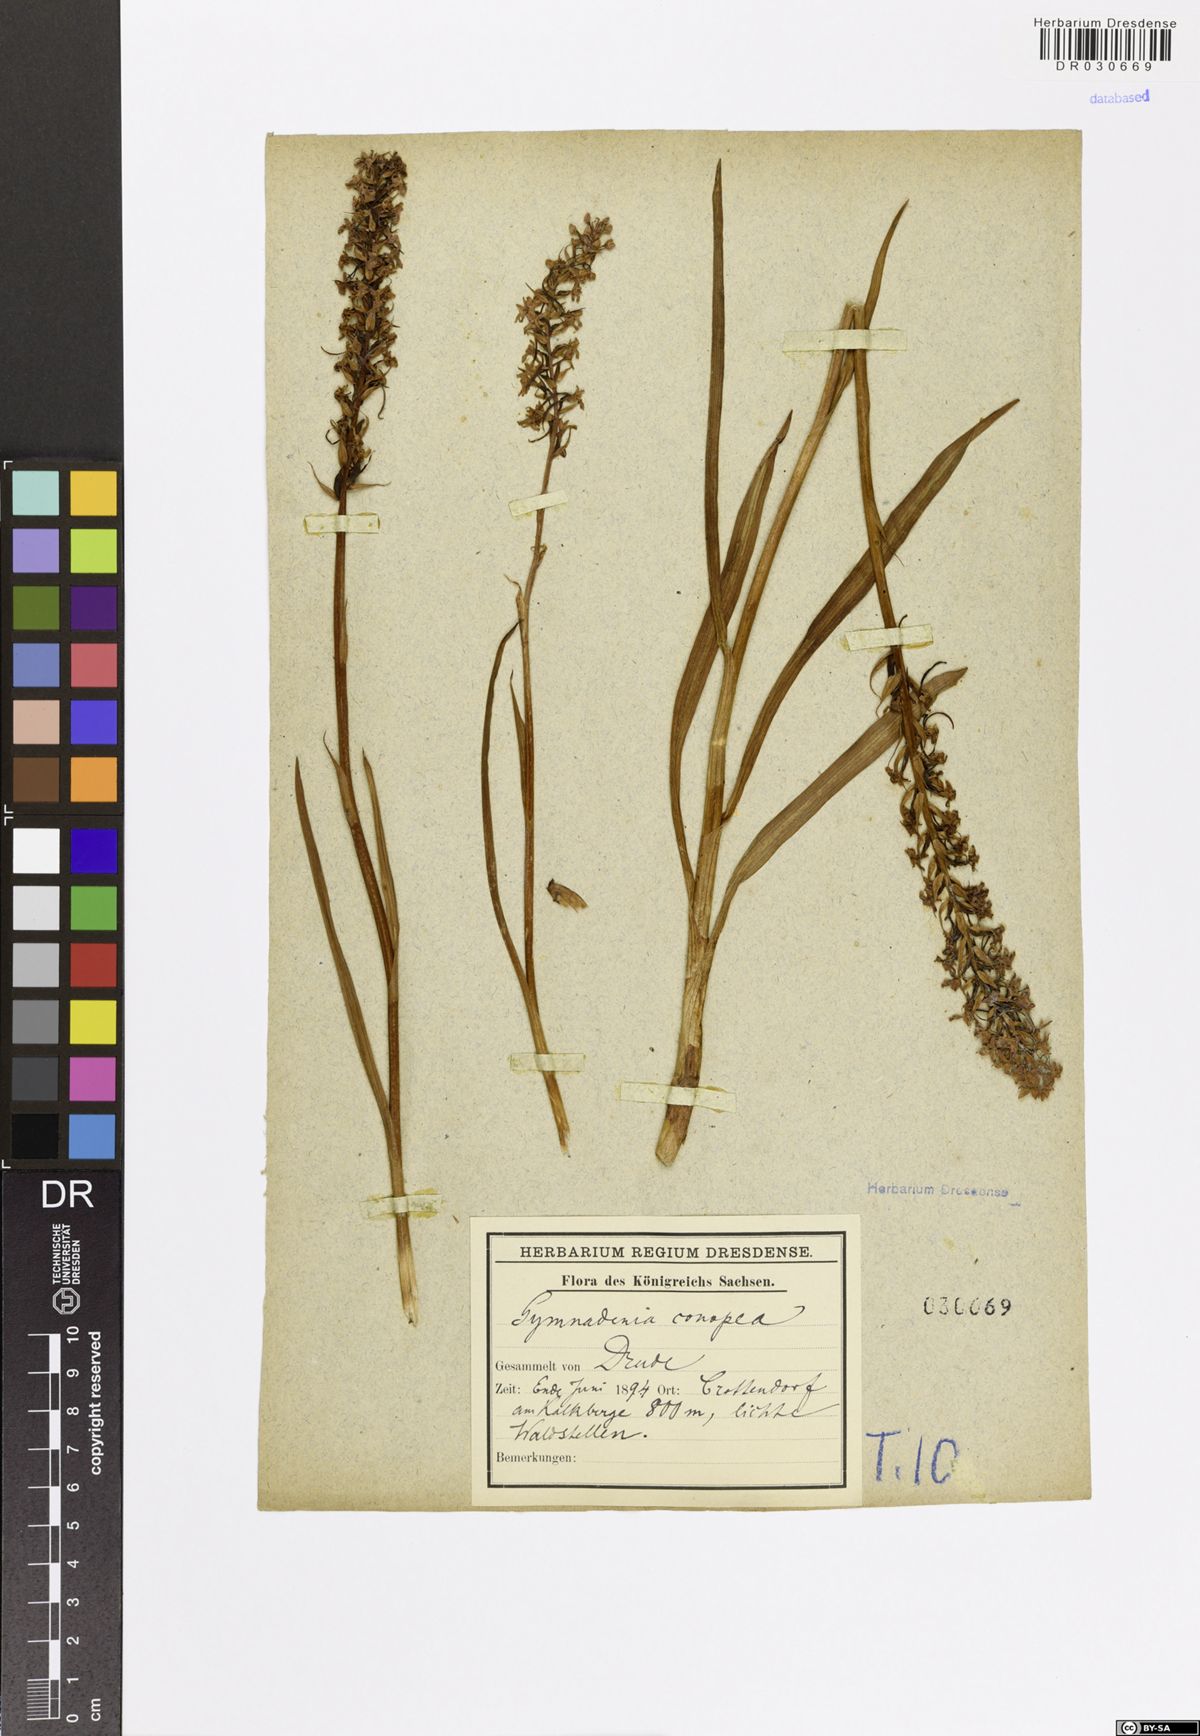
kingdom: Plantae
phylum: Tracheophyta
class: Liliopsida
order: Asparagales
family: Orchidaceae
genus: Gymnadenia
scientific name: Gymnadenia conopsea
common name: Fragrant orchid
